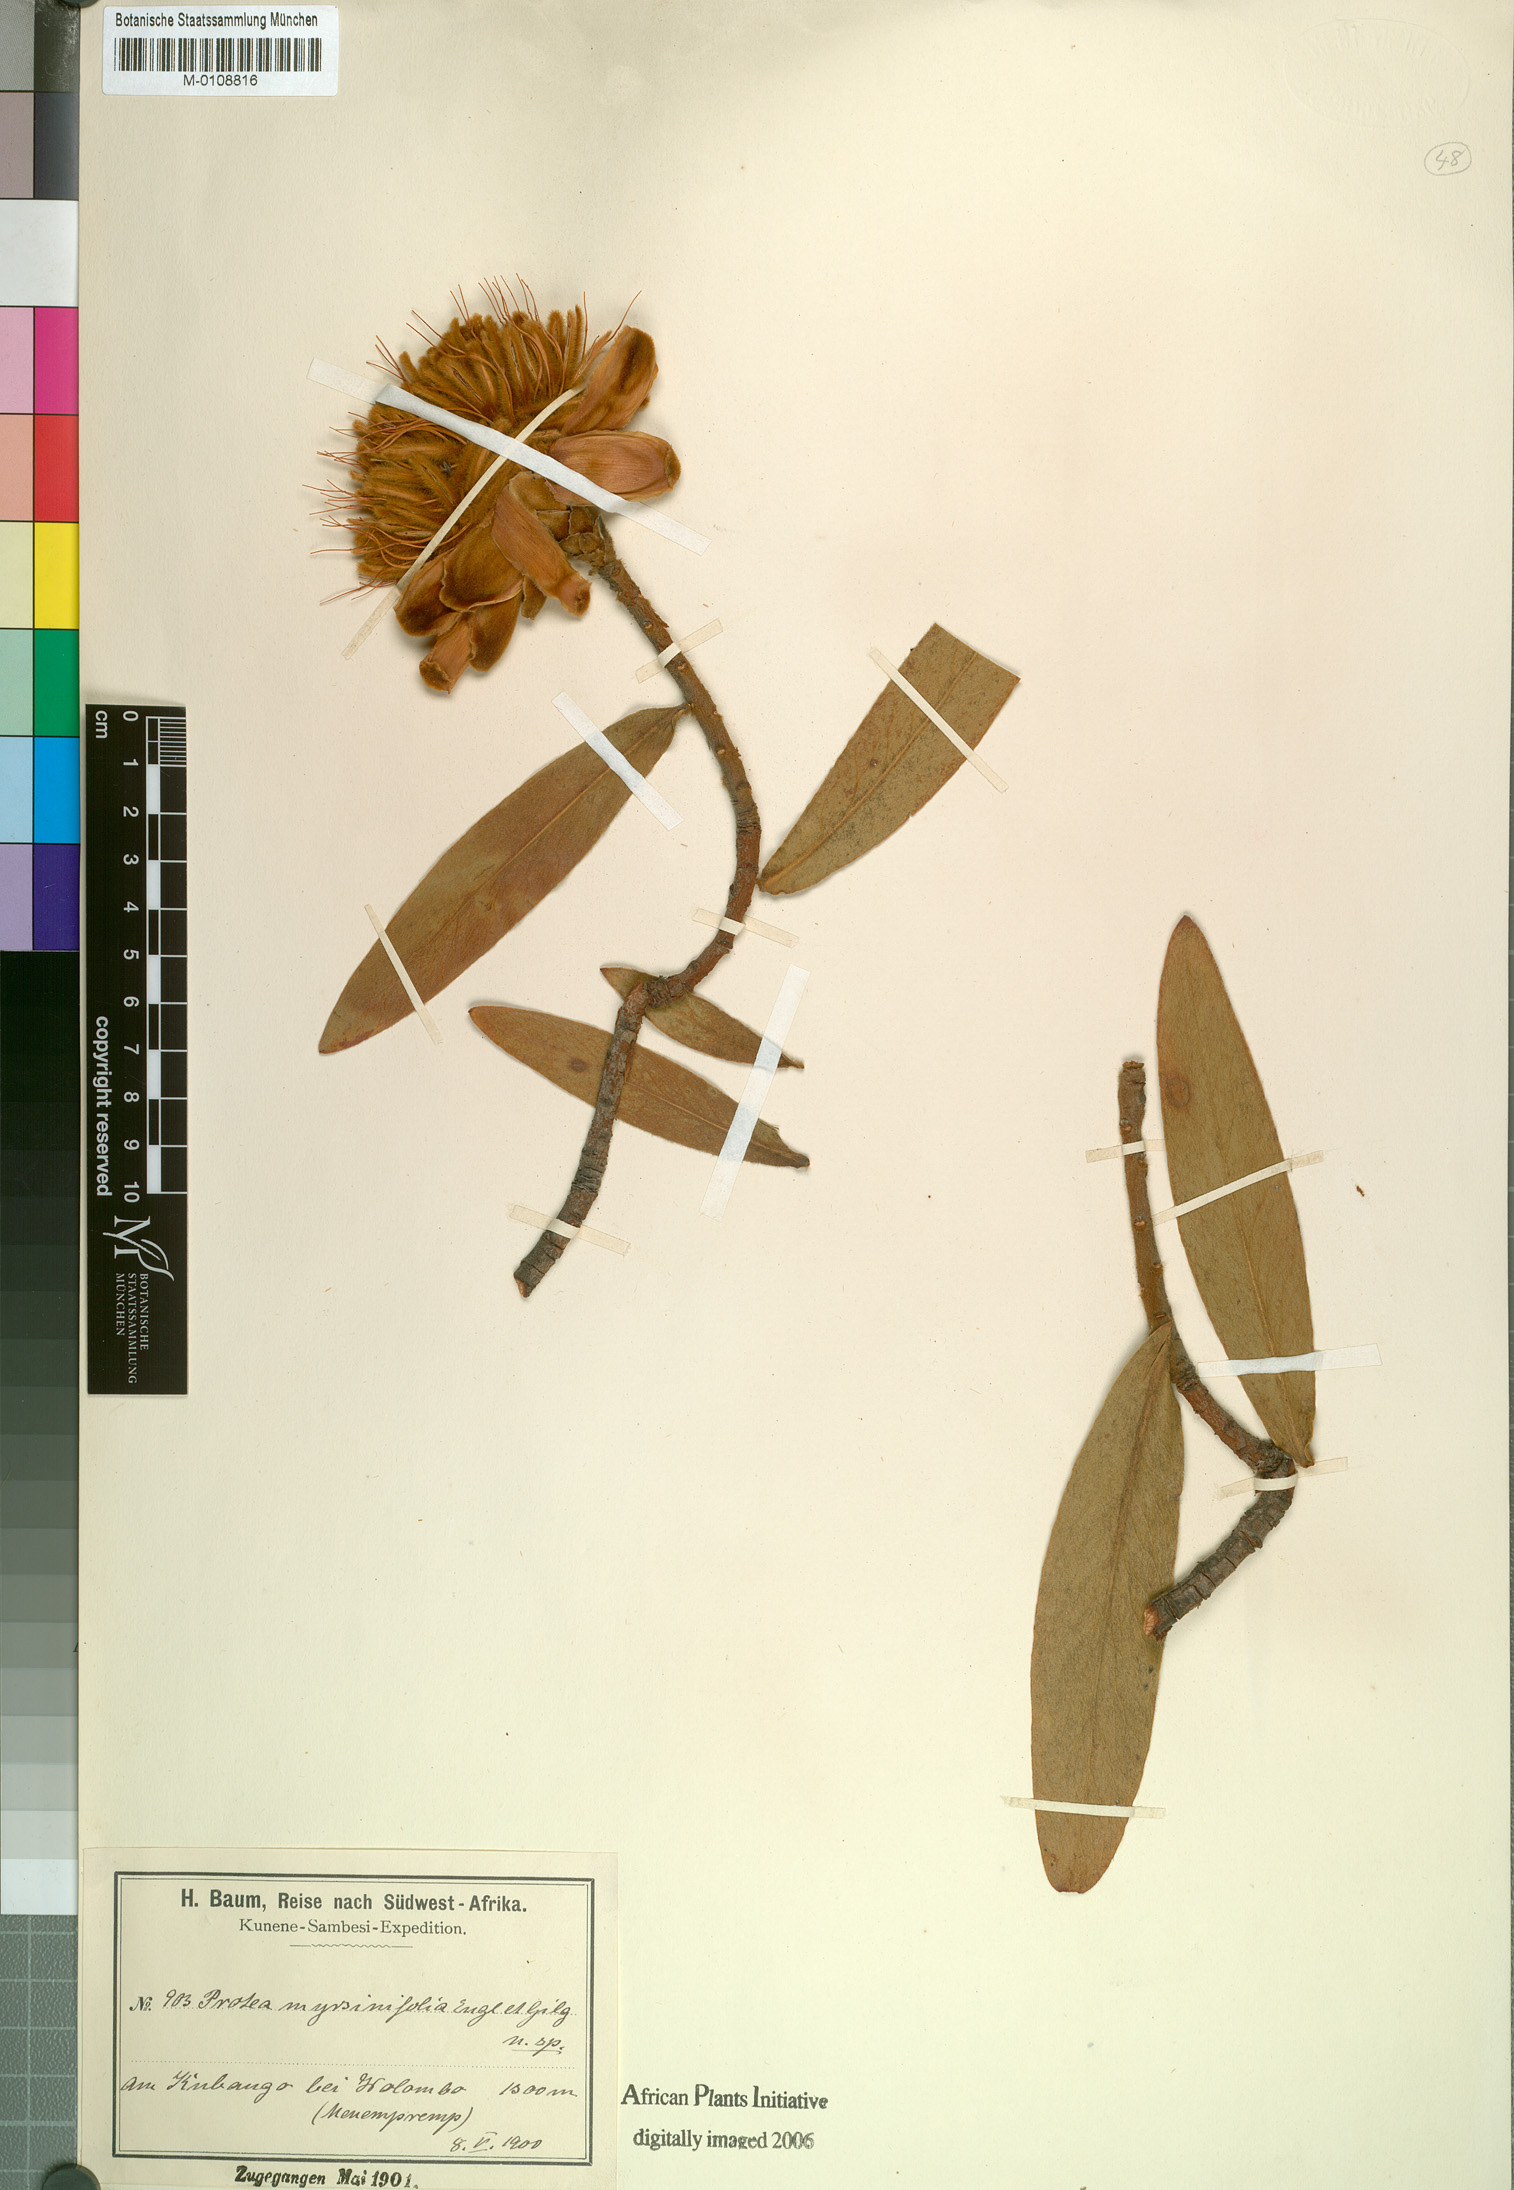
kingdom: Plantae
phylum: Tracheophyta
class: Magnoliopsida
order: Proteales
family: Proteaceae
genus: Protea
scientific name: Protea welwitschii
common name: Cluster-head protea
